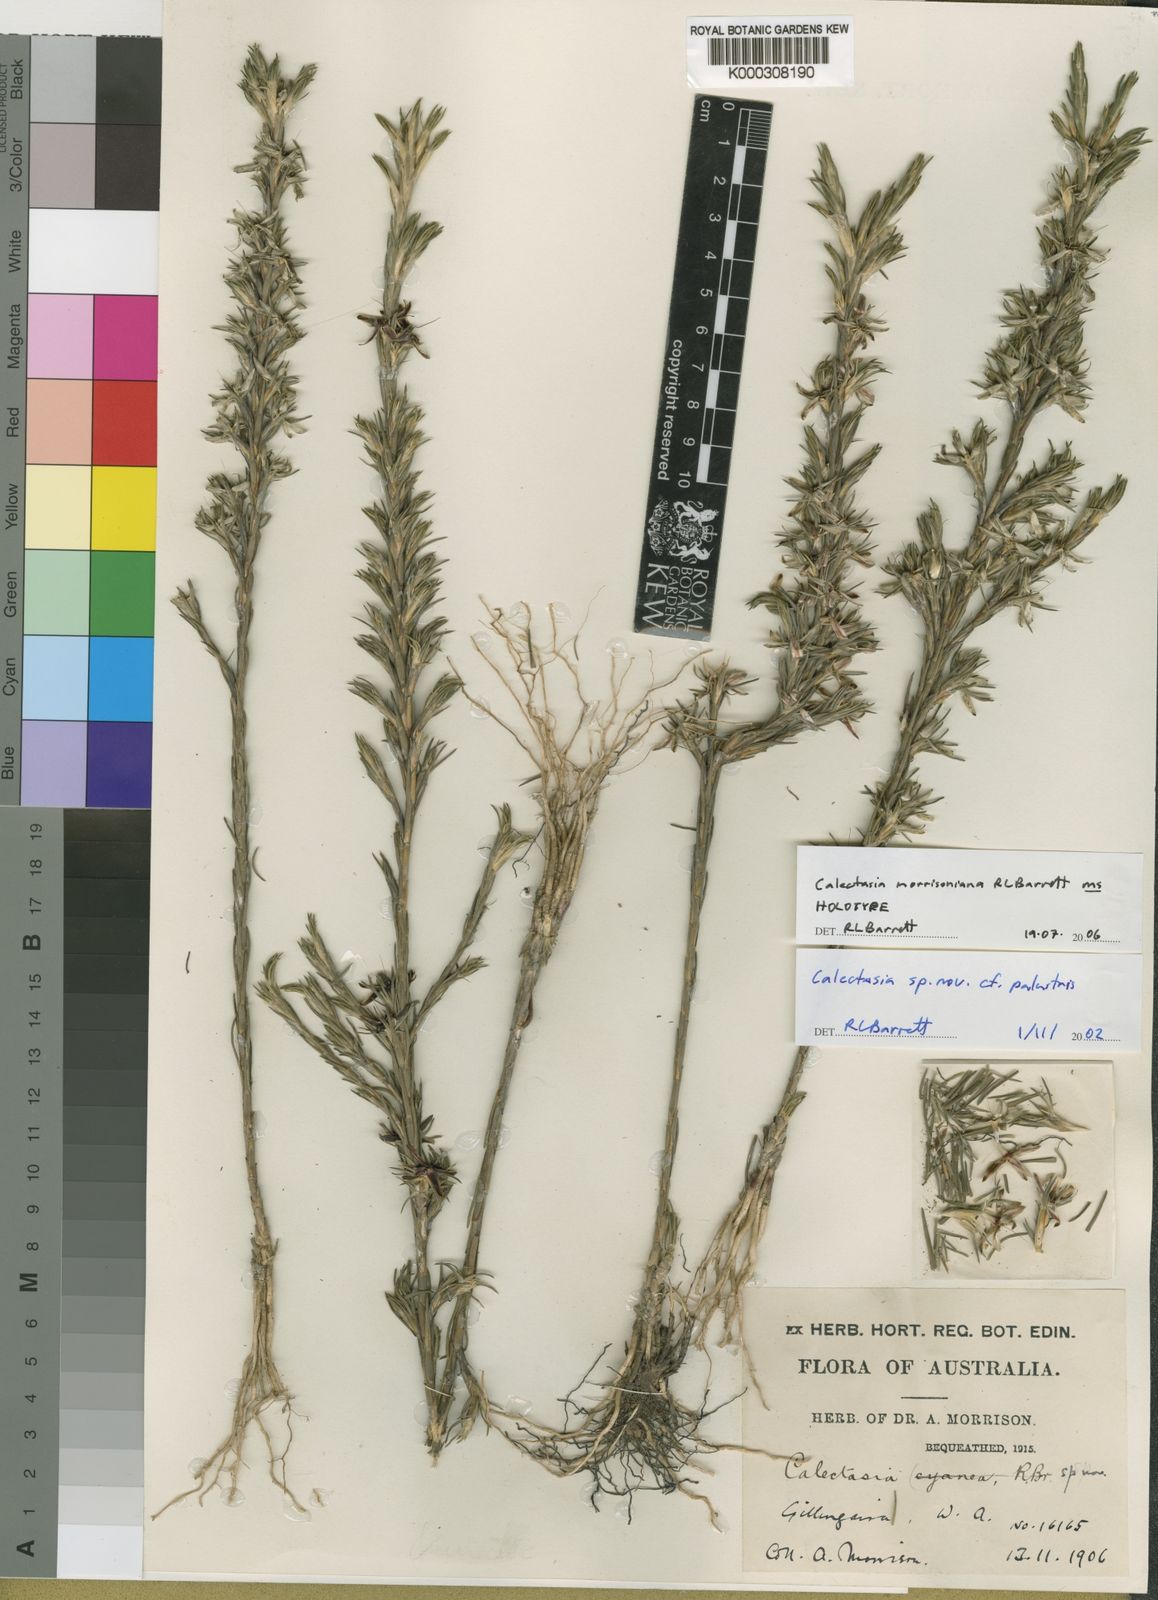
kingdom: Plantae
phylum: Tracheophyta
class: Liliopsida
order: Arecales
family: Dasypogonaceae
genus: Calectasia
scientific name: Calectasia
